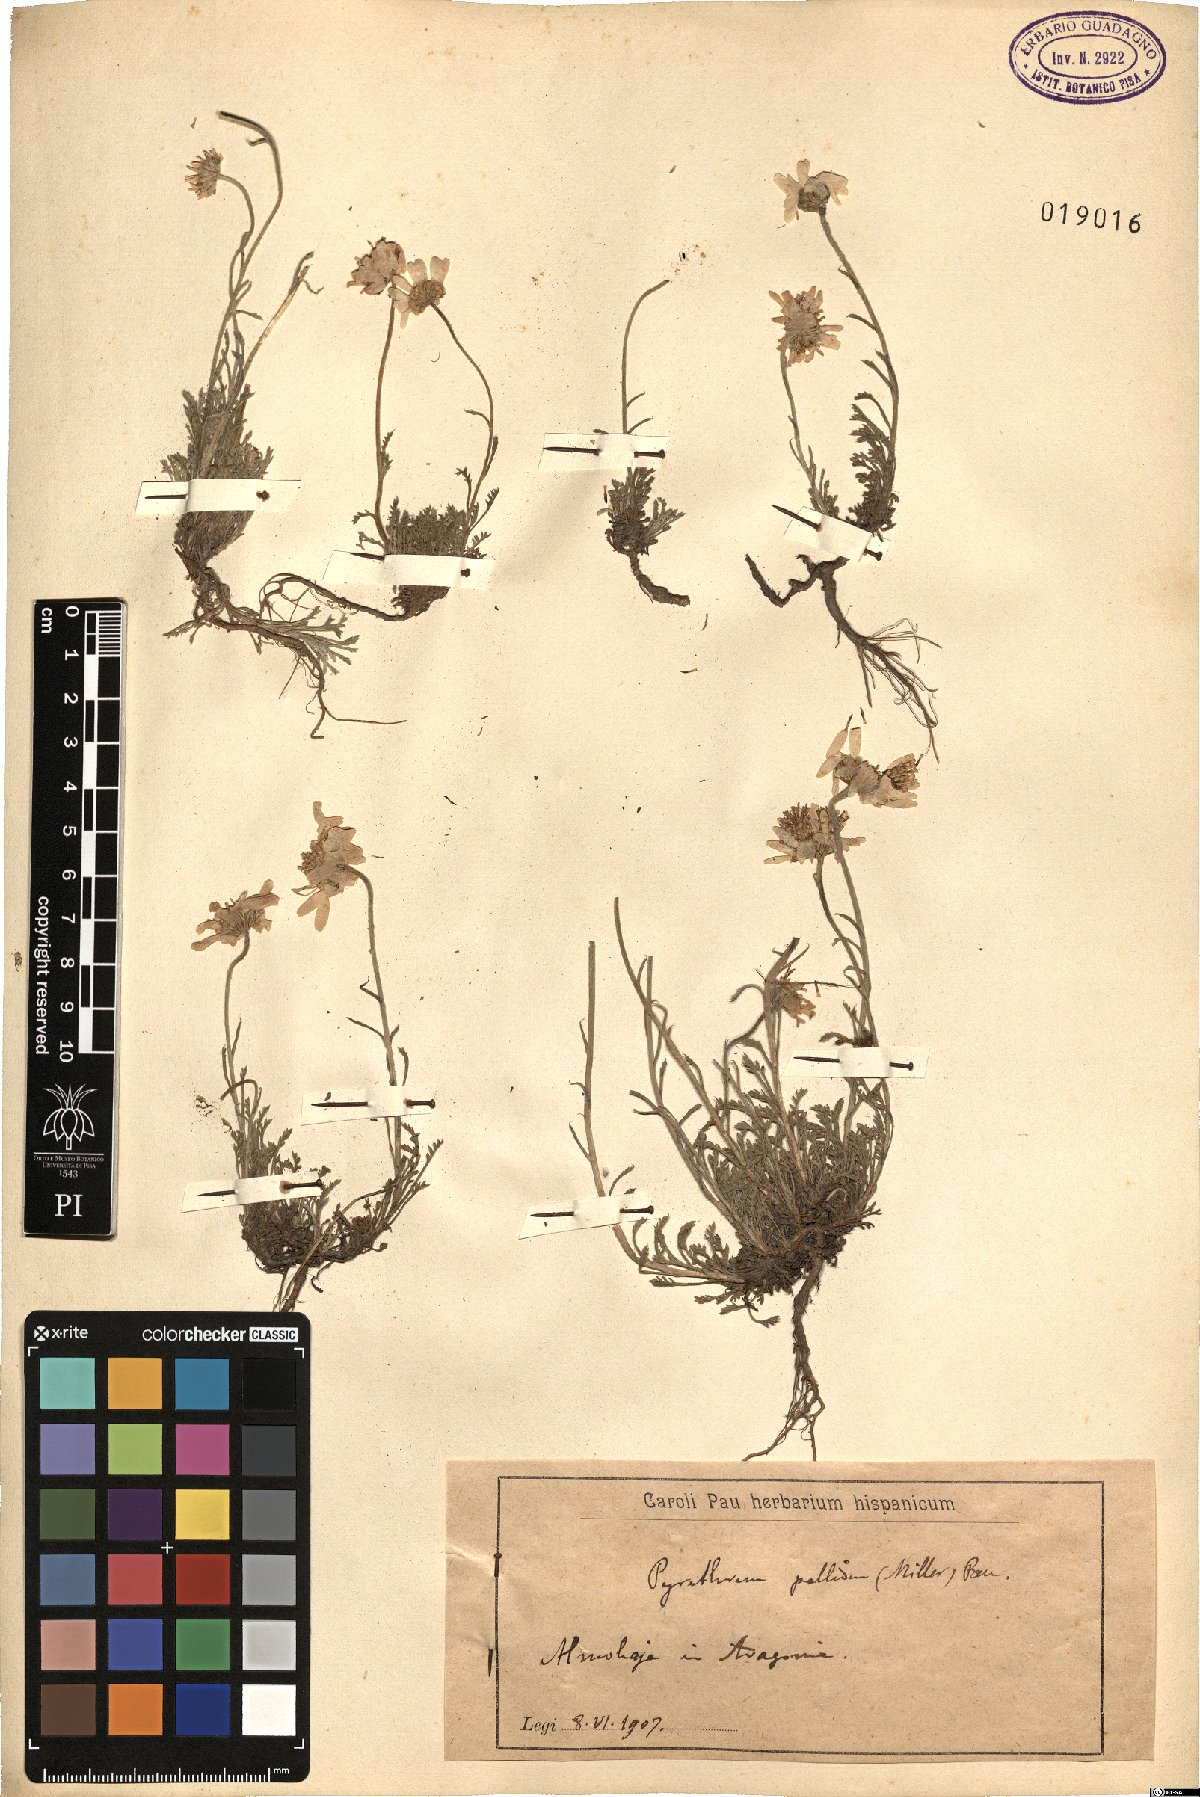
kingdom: Plantae
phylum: Tracheophyta
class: Magnoliopsida
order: Asterales
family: Asteraceae
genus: Leucanthemopsis
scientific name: Leucanthemopsis pallida
